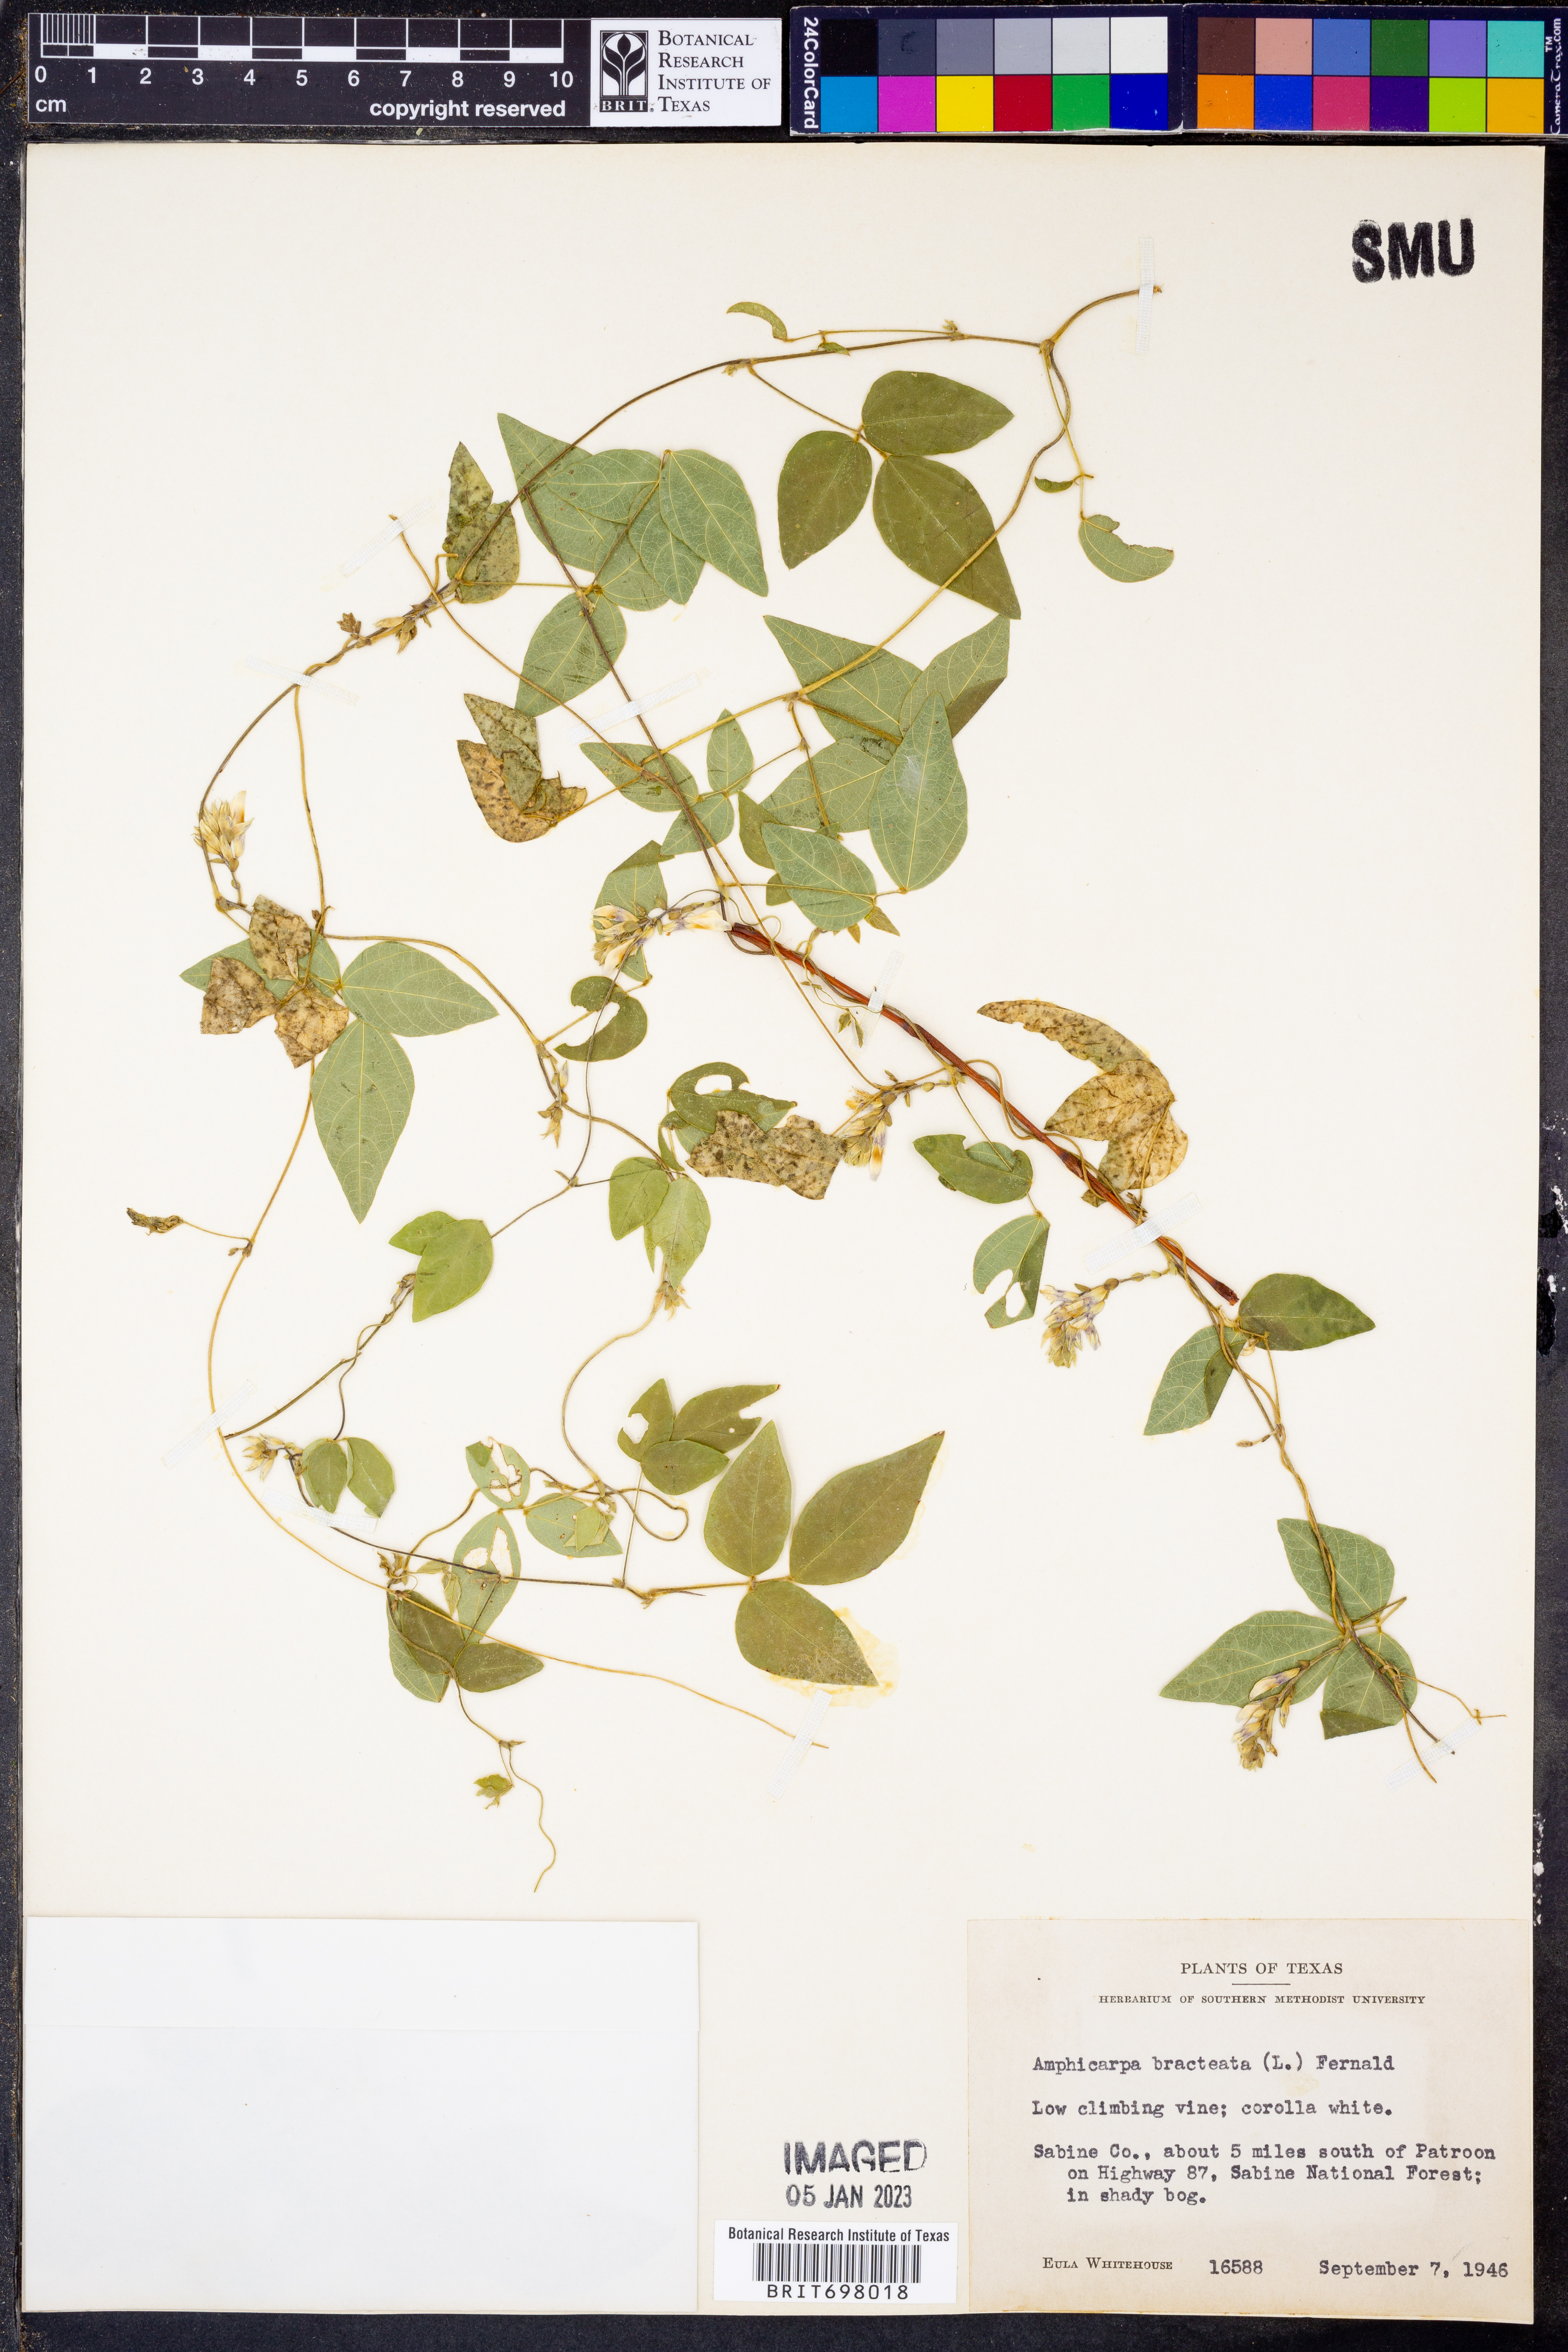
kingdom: Plantae
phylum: Tracheophyta
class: Magnoliopsida
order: Fabales
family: Fabaceae
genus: Amphicarpaea
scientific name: Amphicarpaea bracteata
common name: American hog peanut
